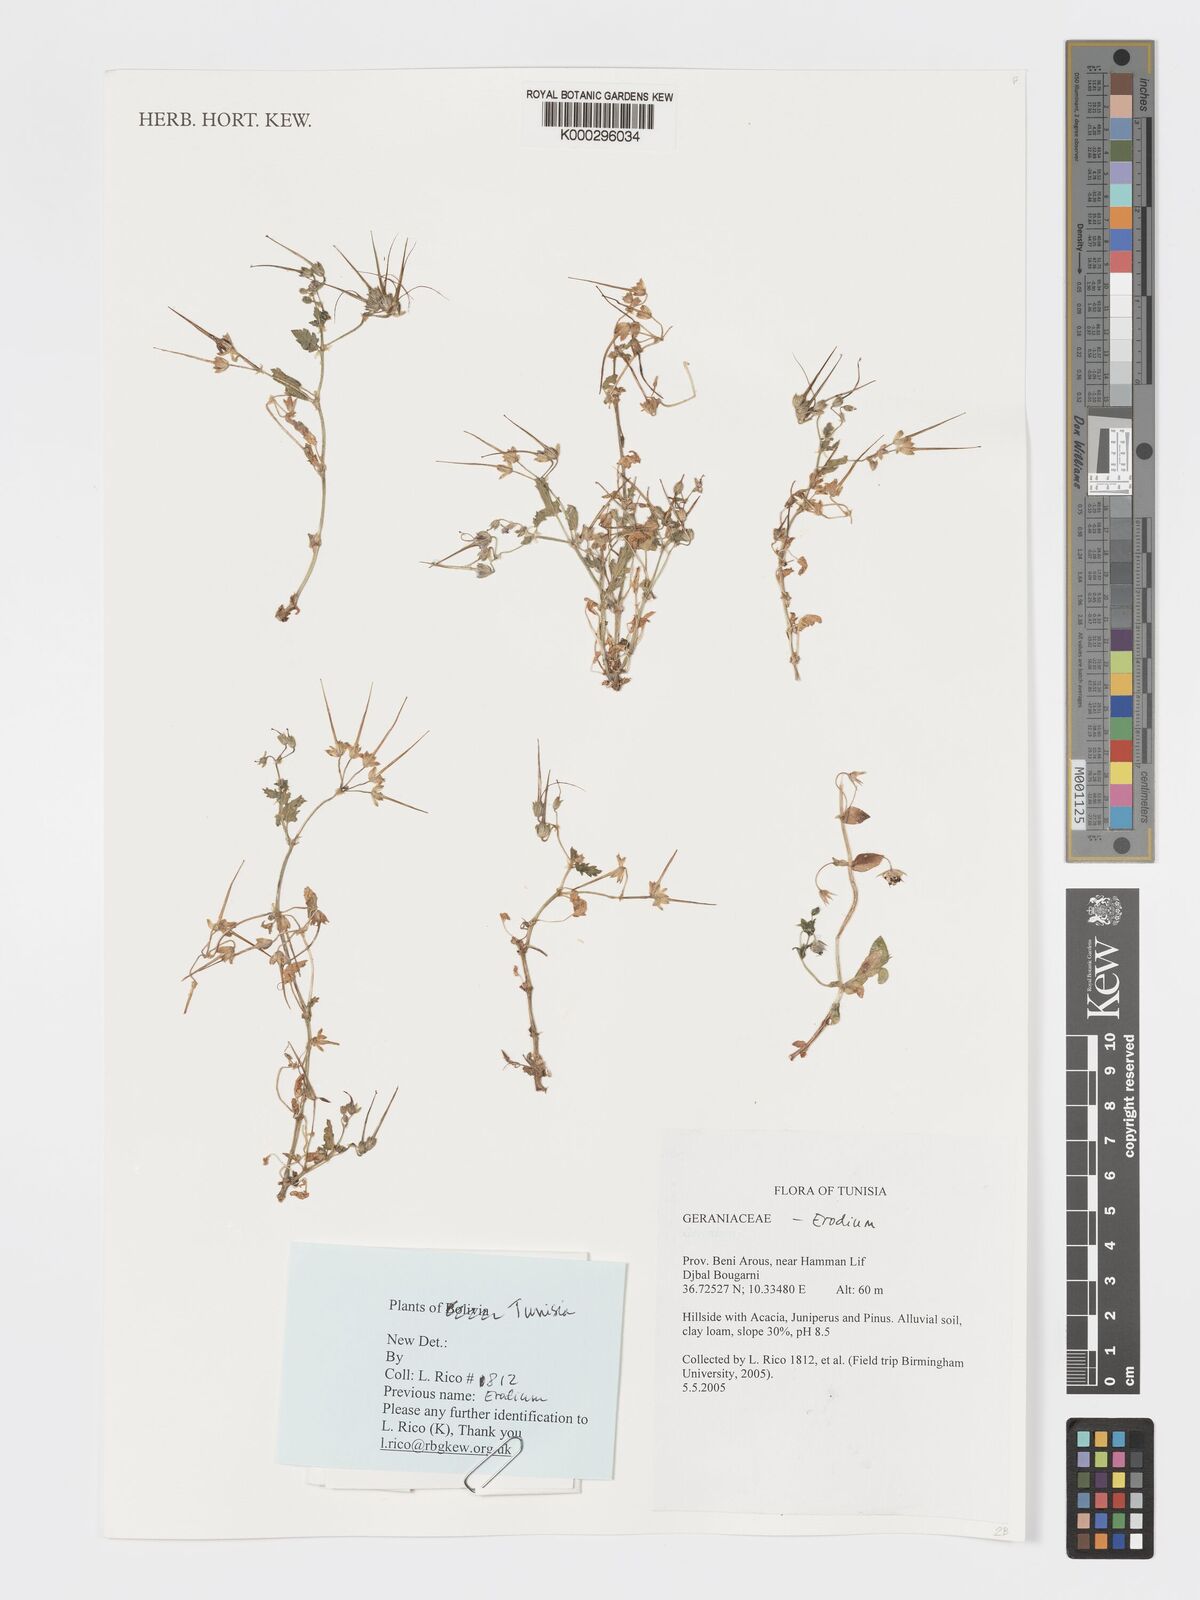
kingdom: Plantae
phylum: Tracheophyta
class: Magnoliopsida
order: Geraniales
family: Geraniaceae
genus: Erodium
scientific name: Erodium malacoides
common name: Soft stork's-bill
